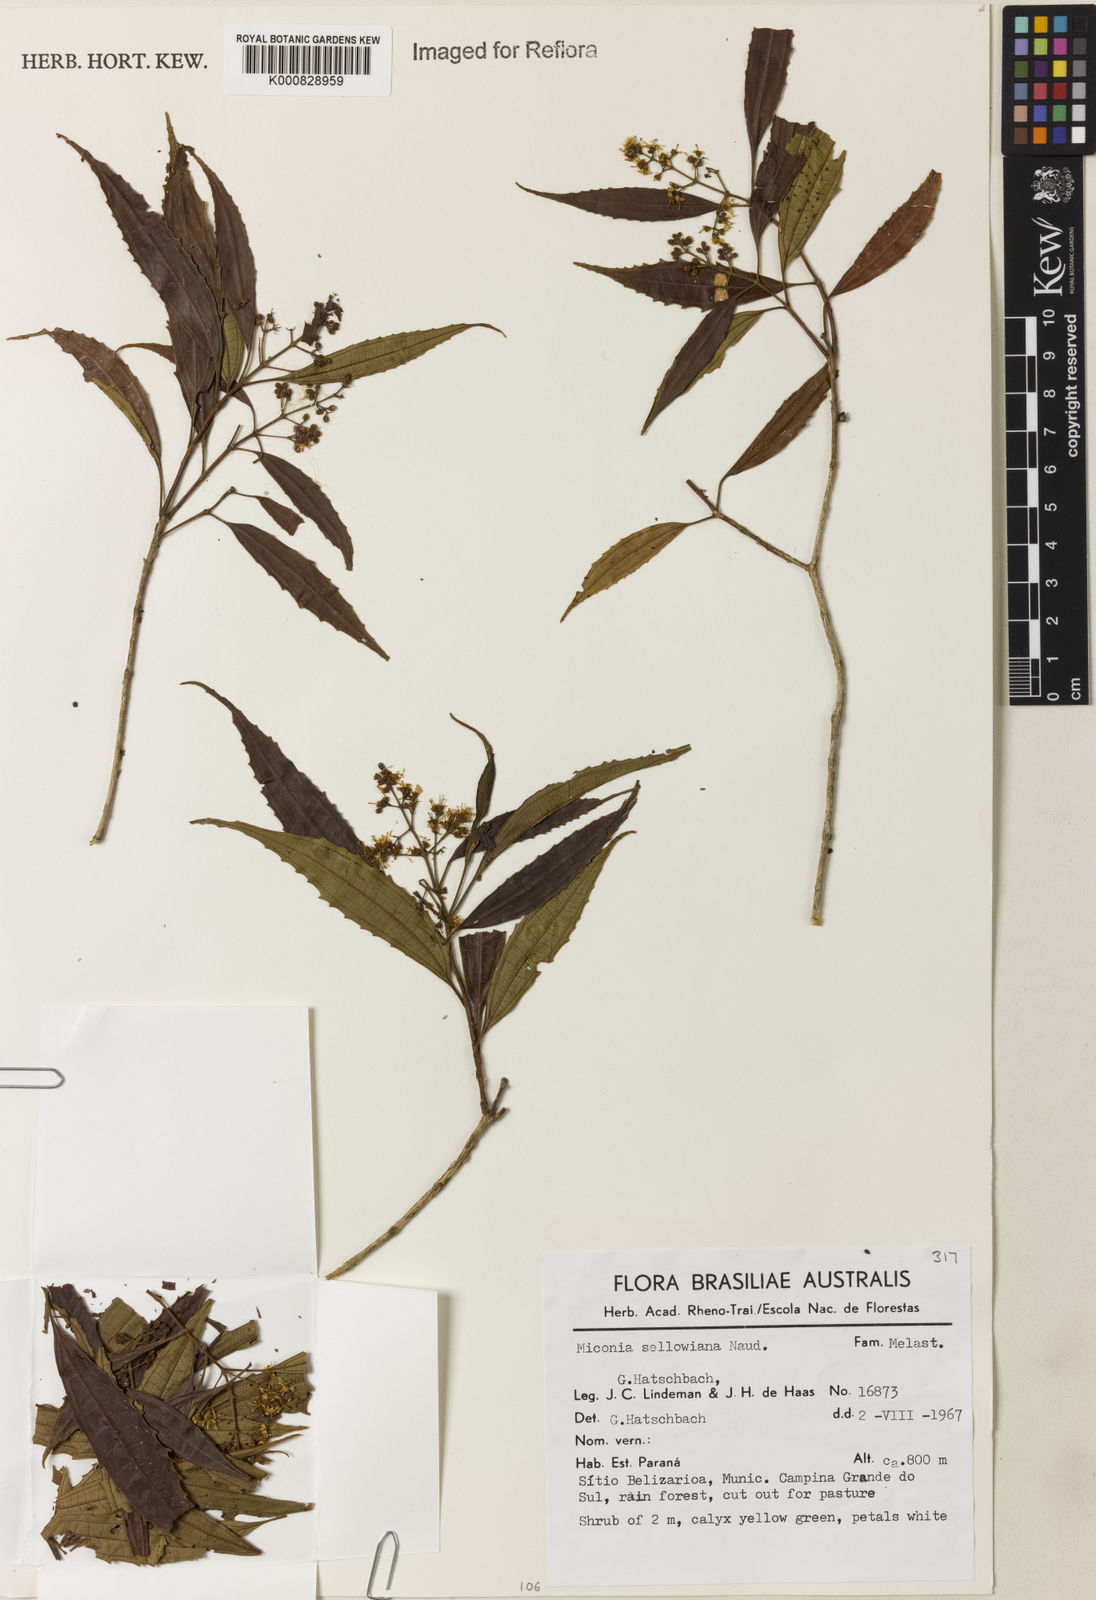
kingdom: Plantae
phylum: Tracheophyta
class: Magnoliopsida
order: Myrtales
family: Melastomataceae
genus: Miconia
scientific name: Miconia sellowiana
